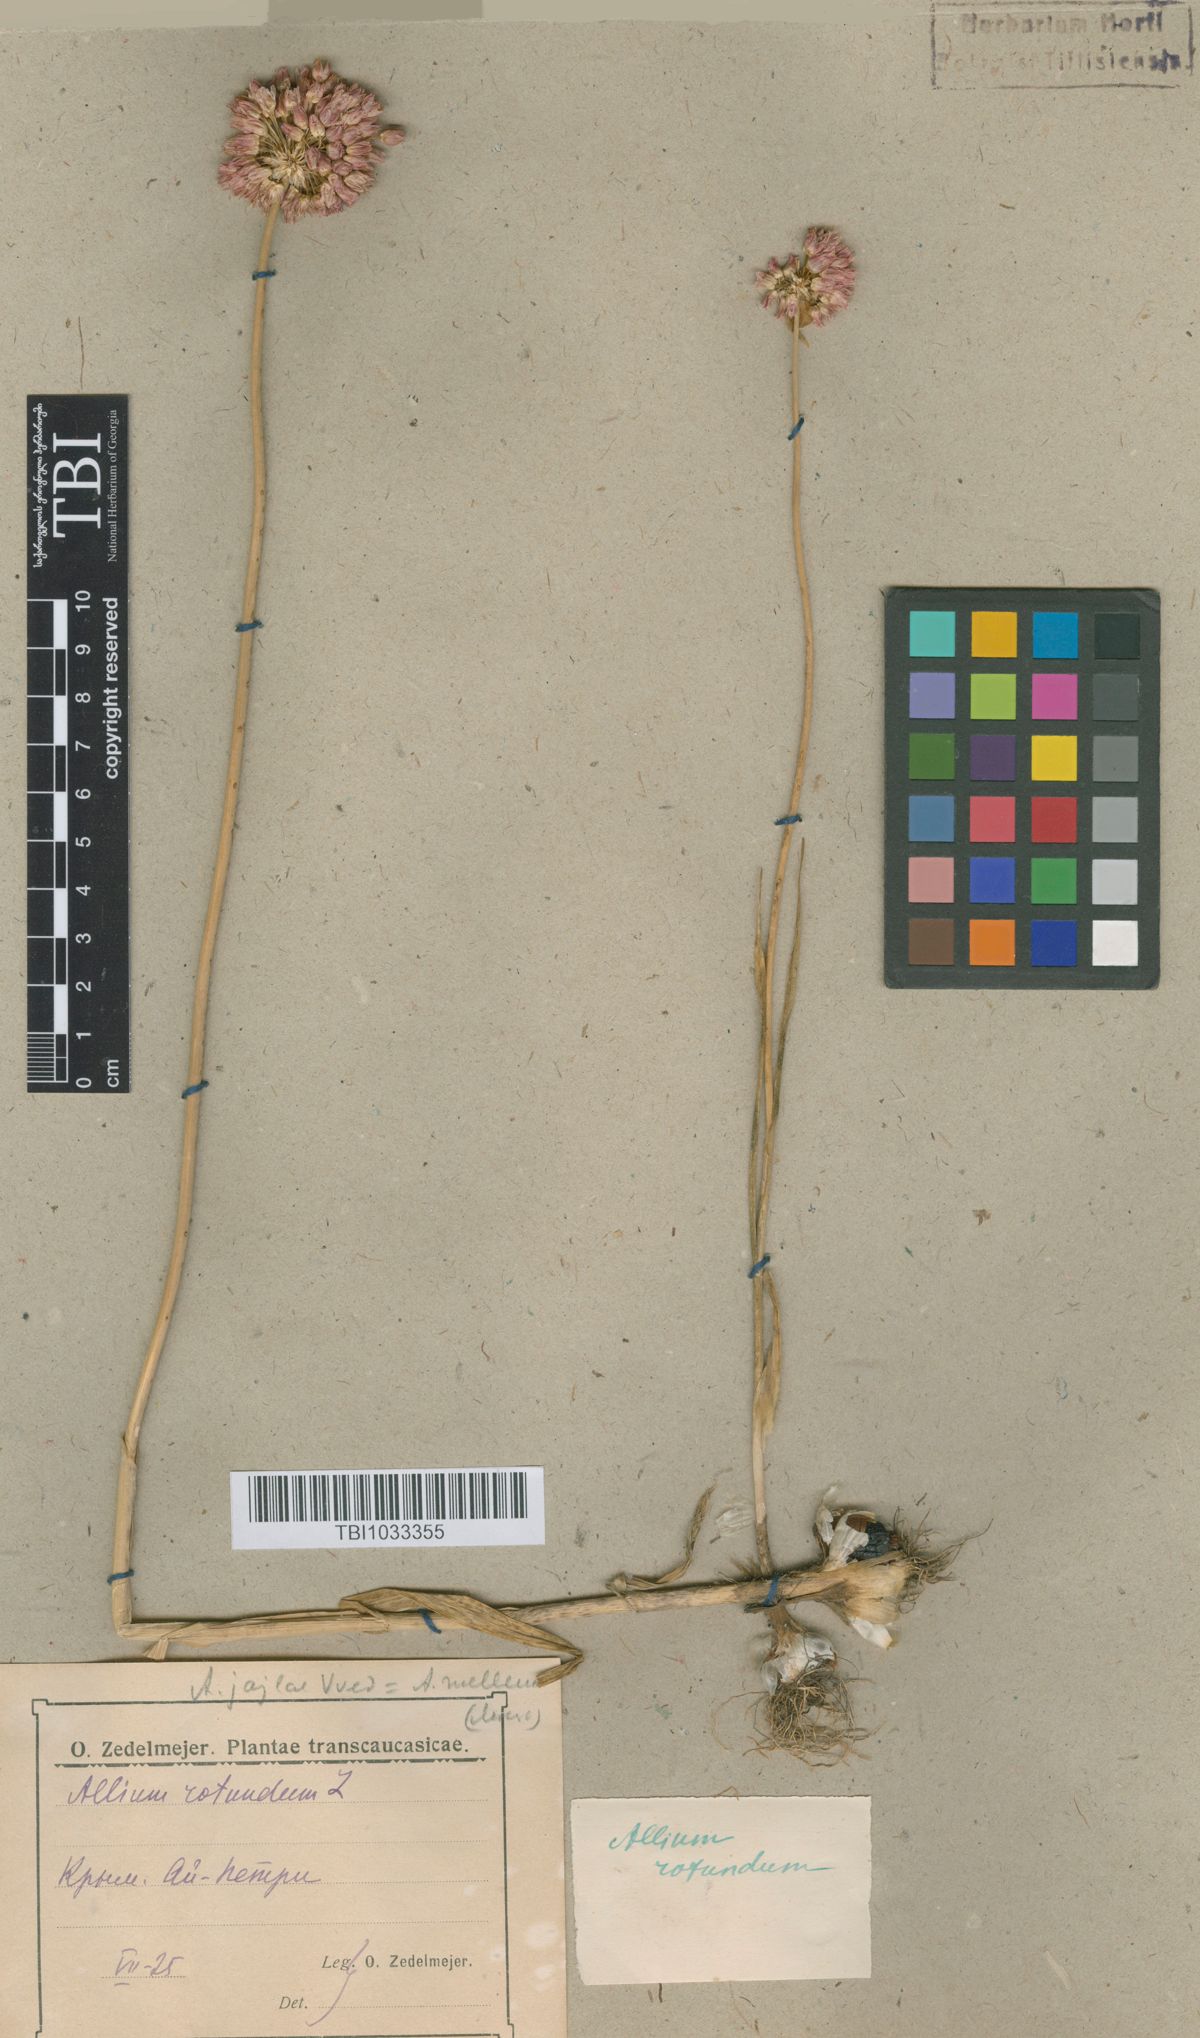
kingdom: Plantae
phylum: Tracheophyta
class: Liliopsida
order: Asparagales
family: Amaryllidaceae
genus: Allium
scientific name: Allium rotundum
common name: Sand leek
